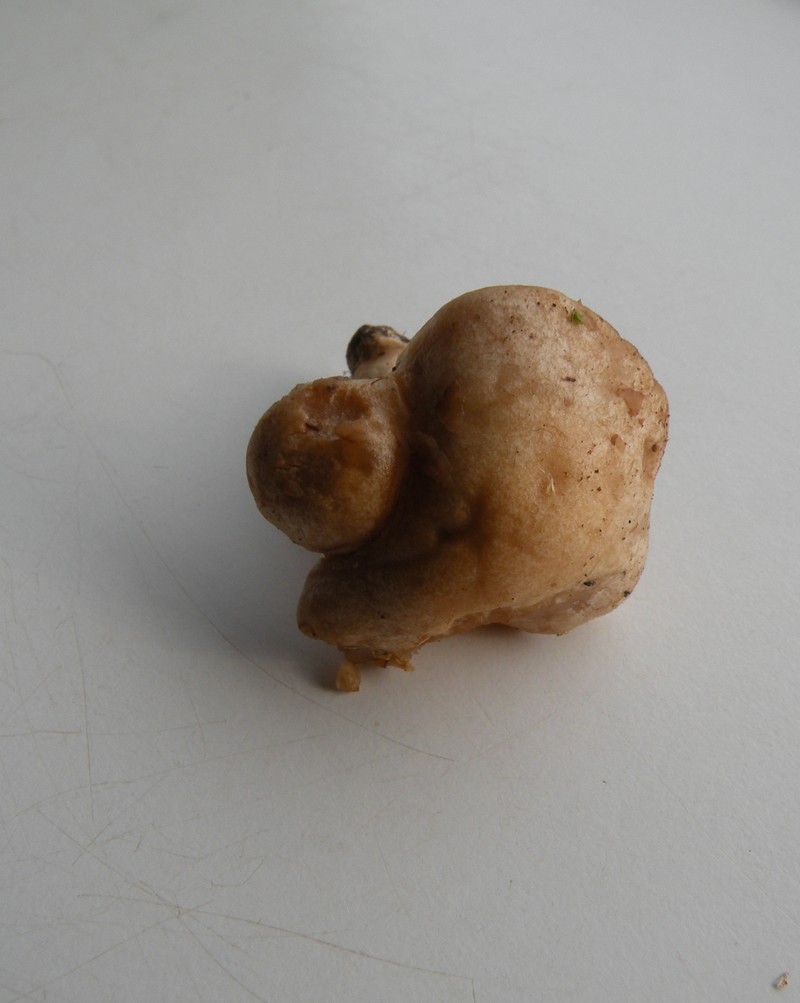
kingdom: Fungi
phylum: Basidiomycota
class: Agaricomycetes
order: Agaricales
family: Hymenogastraceae
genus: Hebeloma
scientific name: Hebeloma sacchariolens
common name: sødtduftende tåreblad
